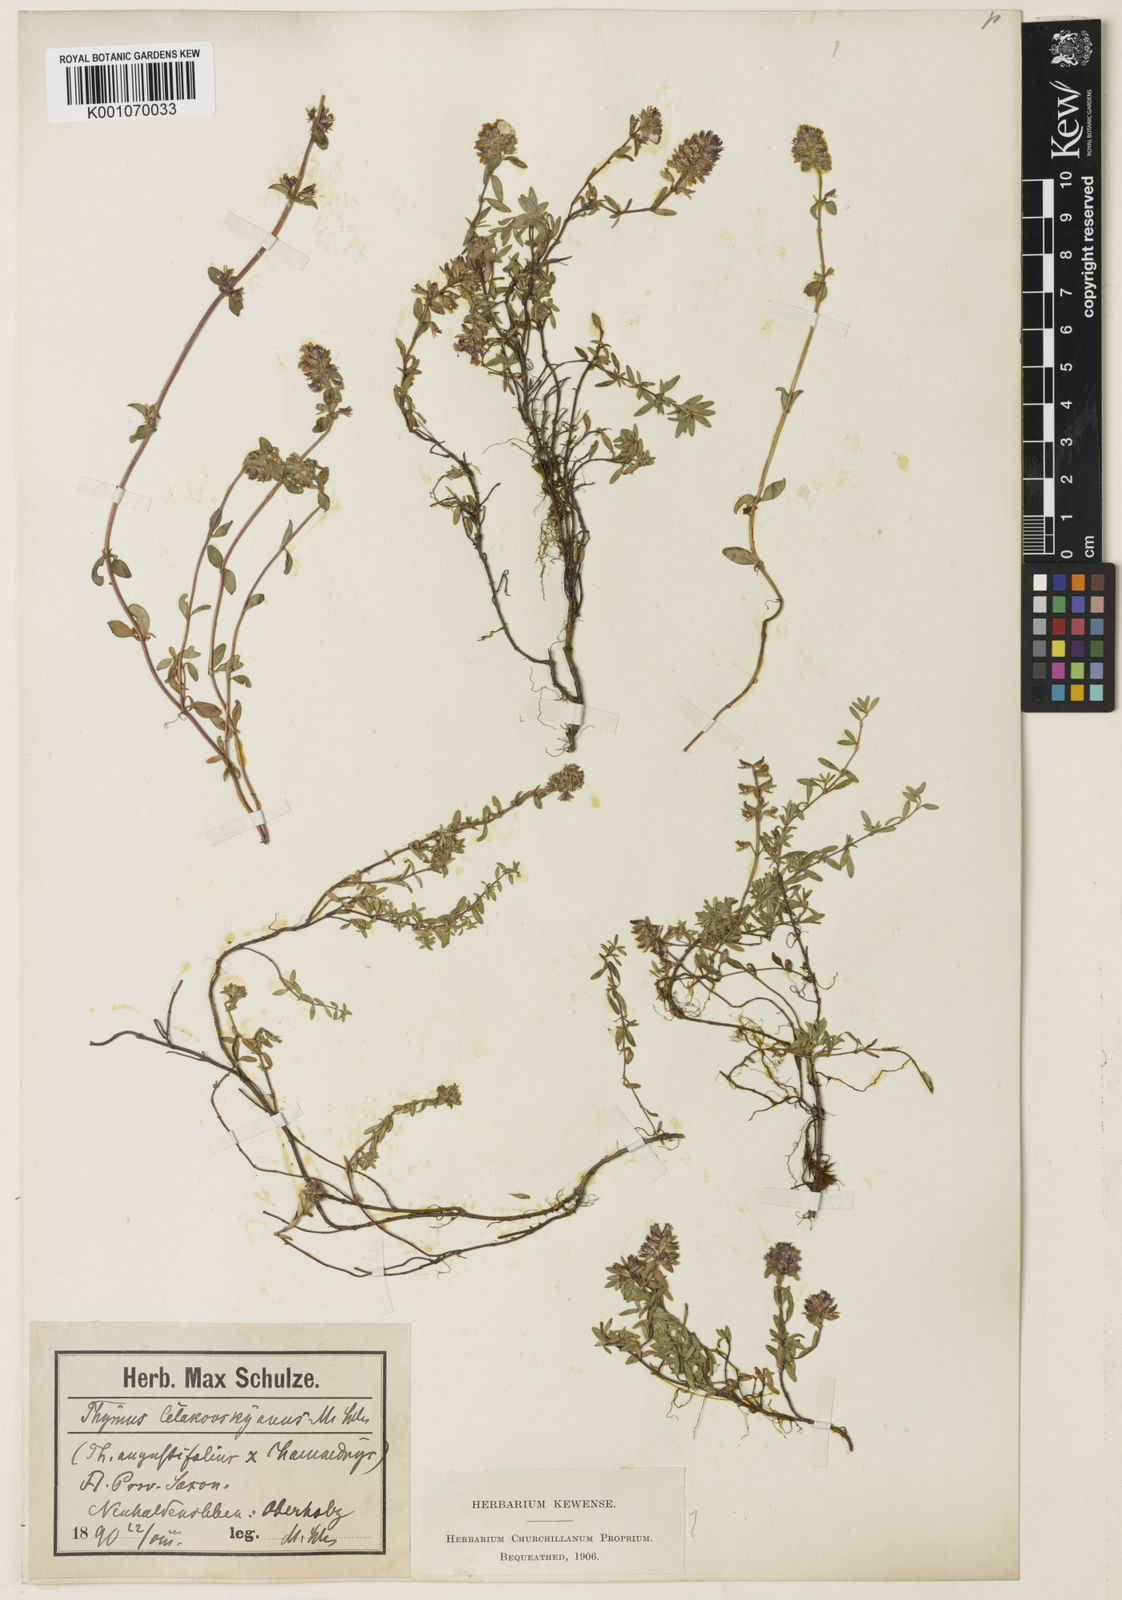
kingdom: Plantae
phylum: Tracheophyta
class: Magnoliopsida
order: Lamiales
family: Lamiaceae
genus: Thymus
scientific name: Thymus serpyllum
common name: Breckland thyme
